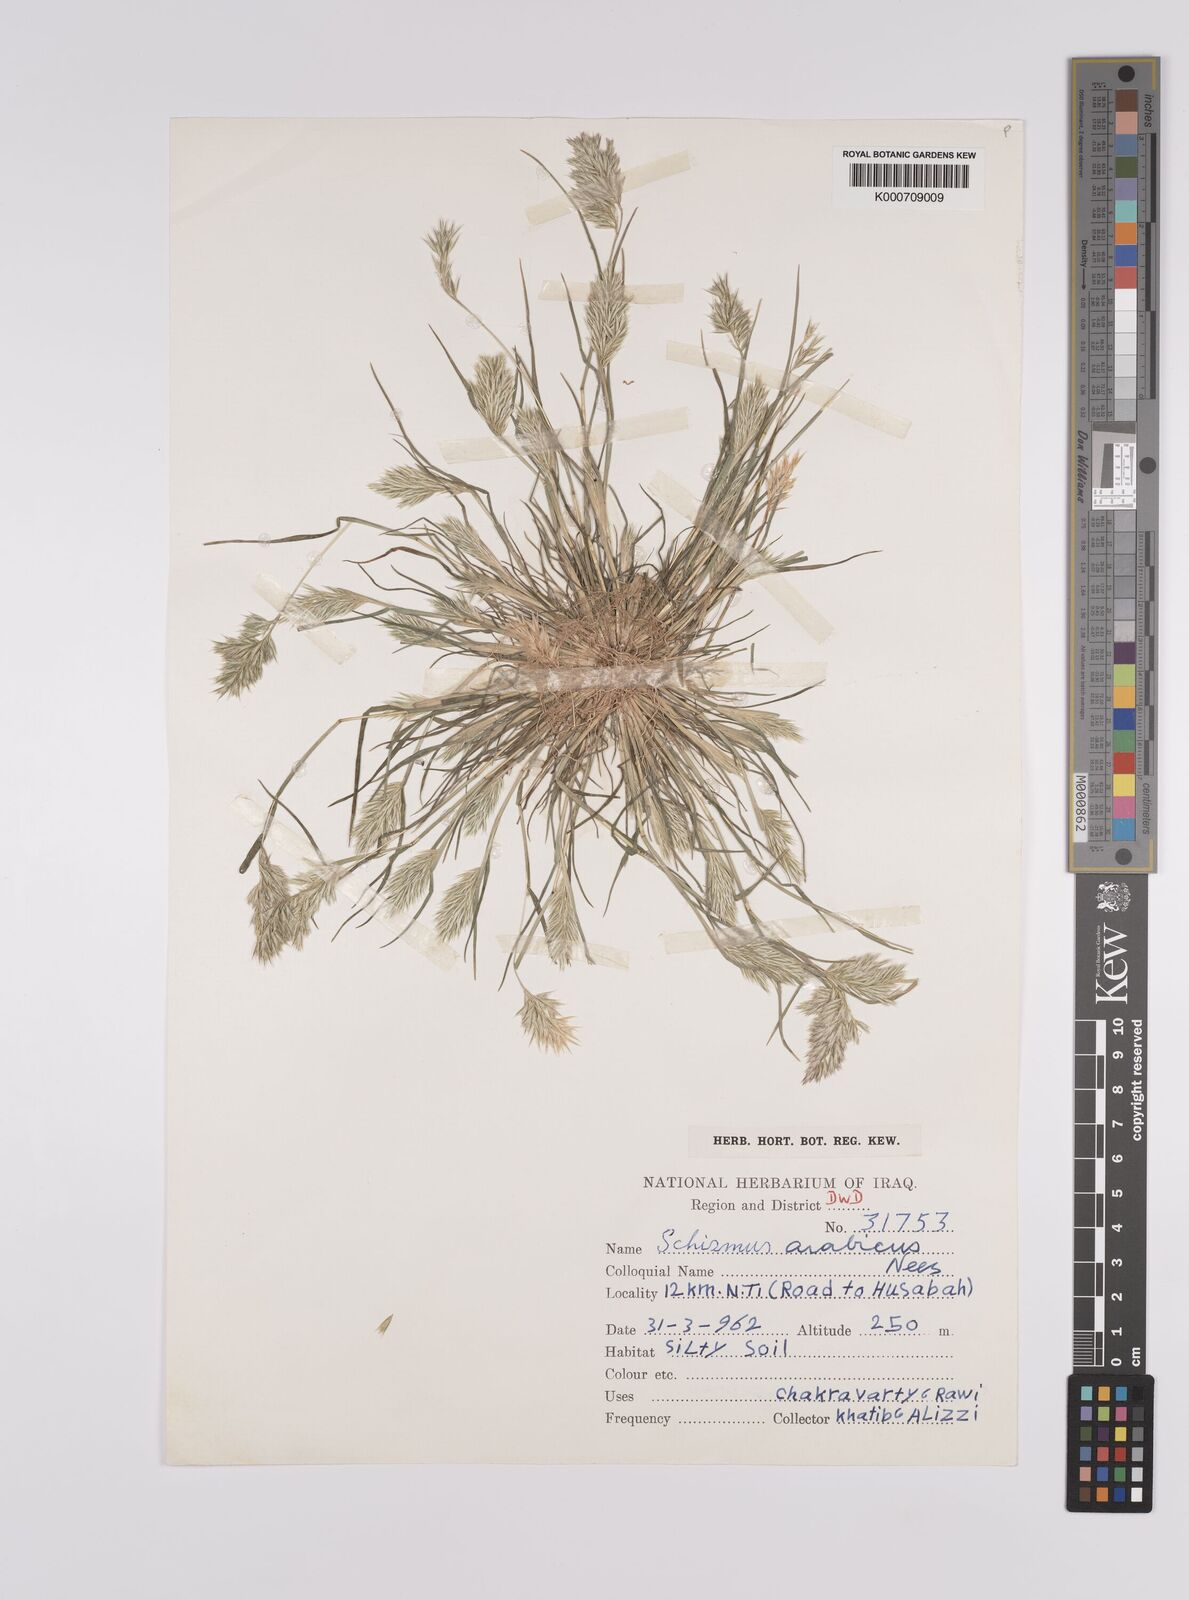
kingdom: Plantae
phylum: Tracheophyta
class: Liliopsida
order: Poales
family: Poaceae
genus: Schismus
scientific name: Schismus arabicus
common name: Arabian schismus
